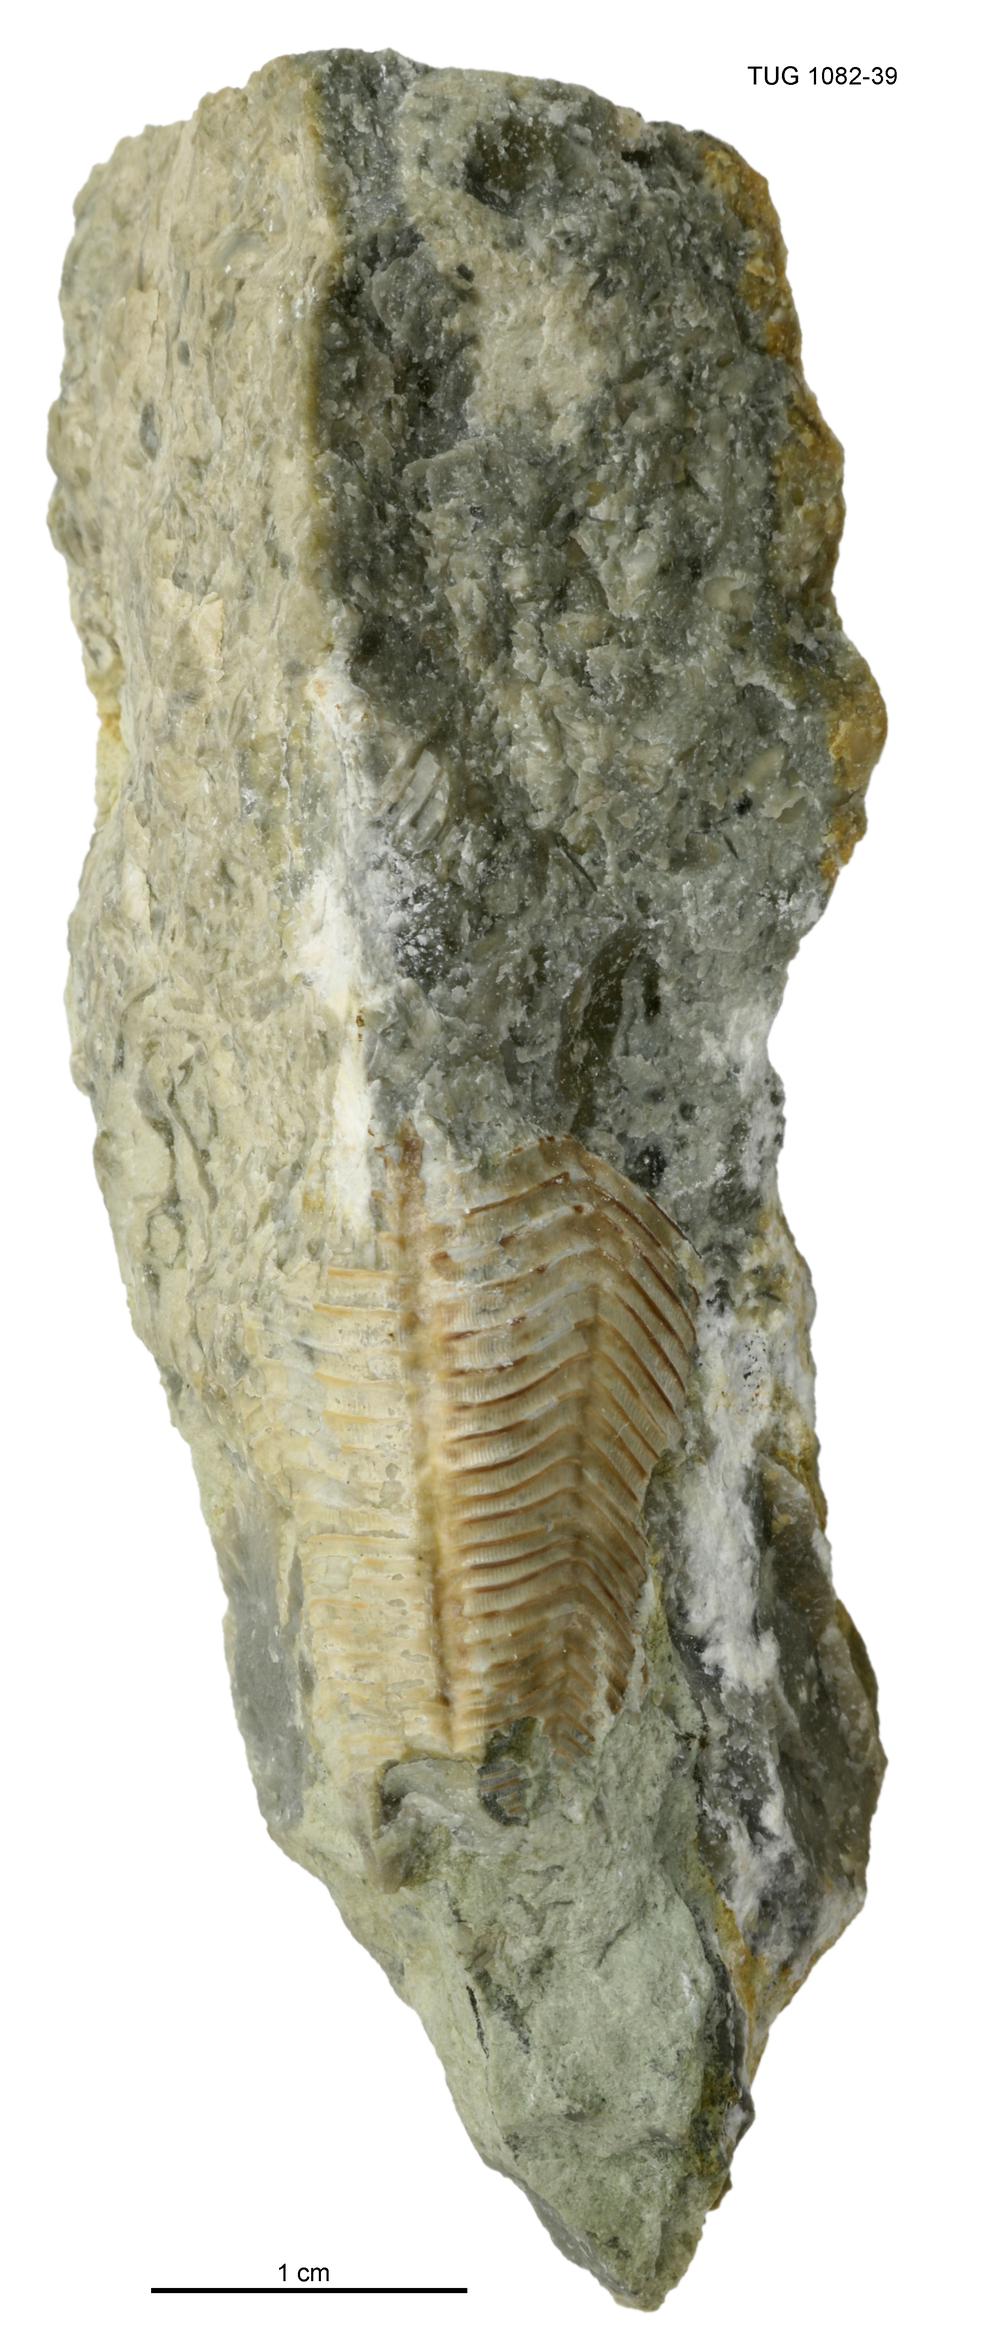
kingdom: Animalia
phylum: Cnidaria
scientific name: Cnidaria
